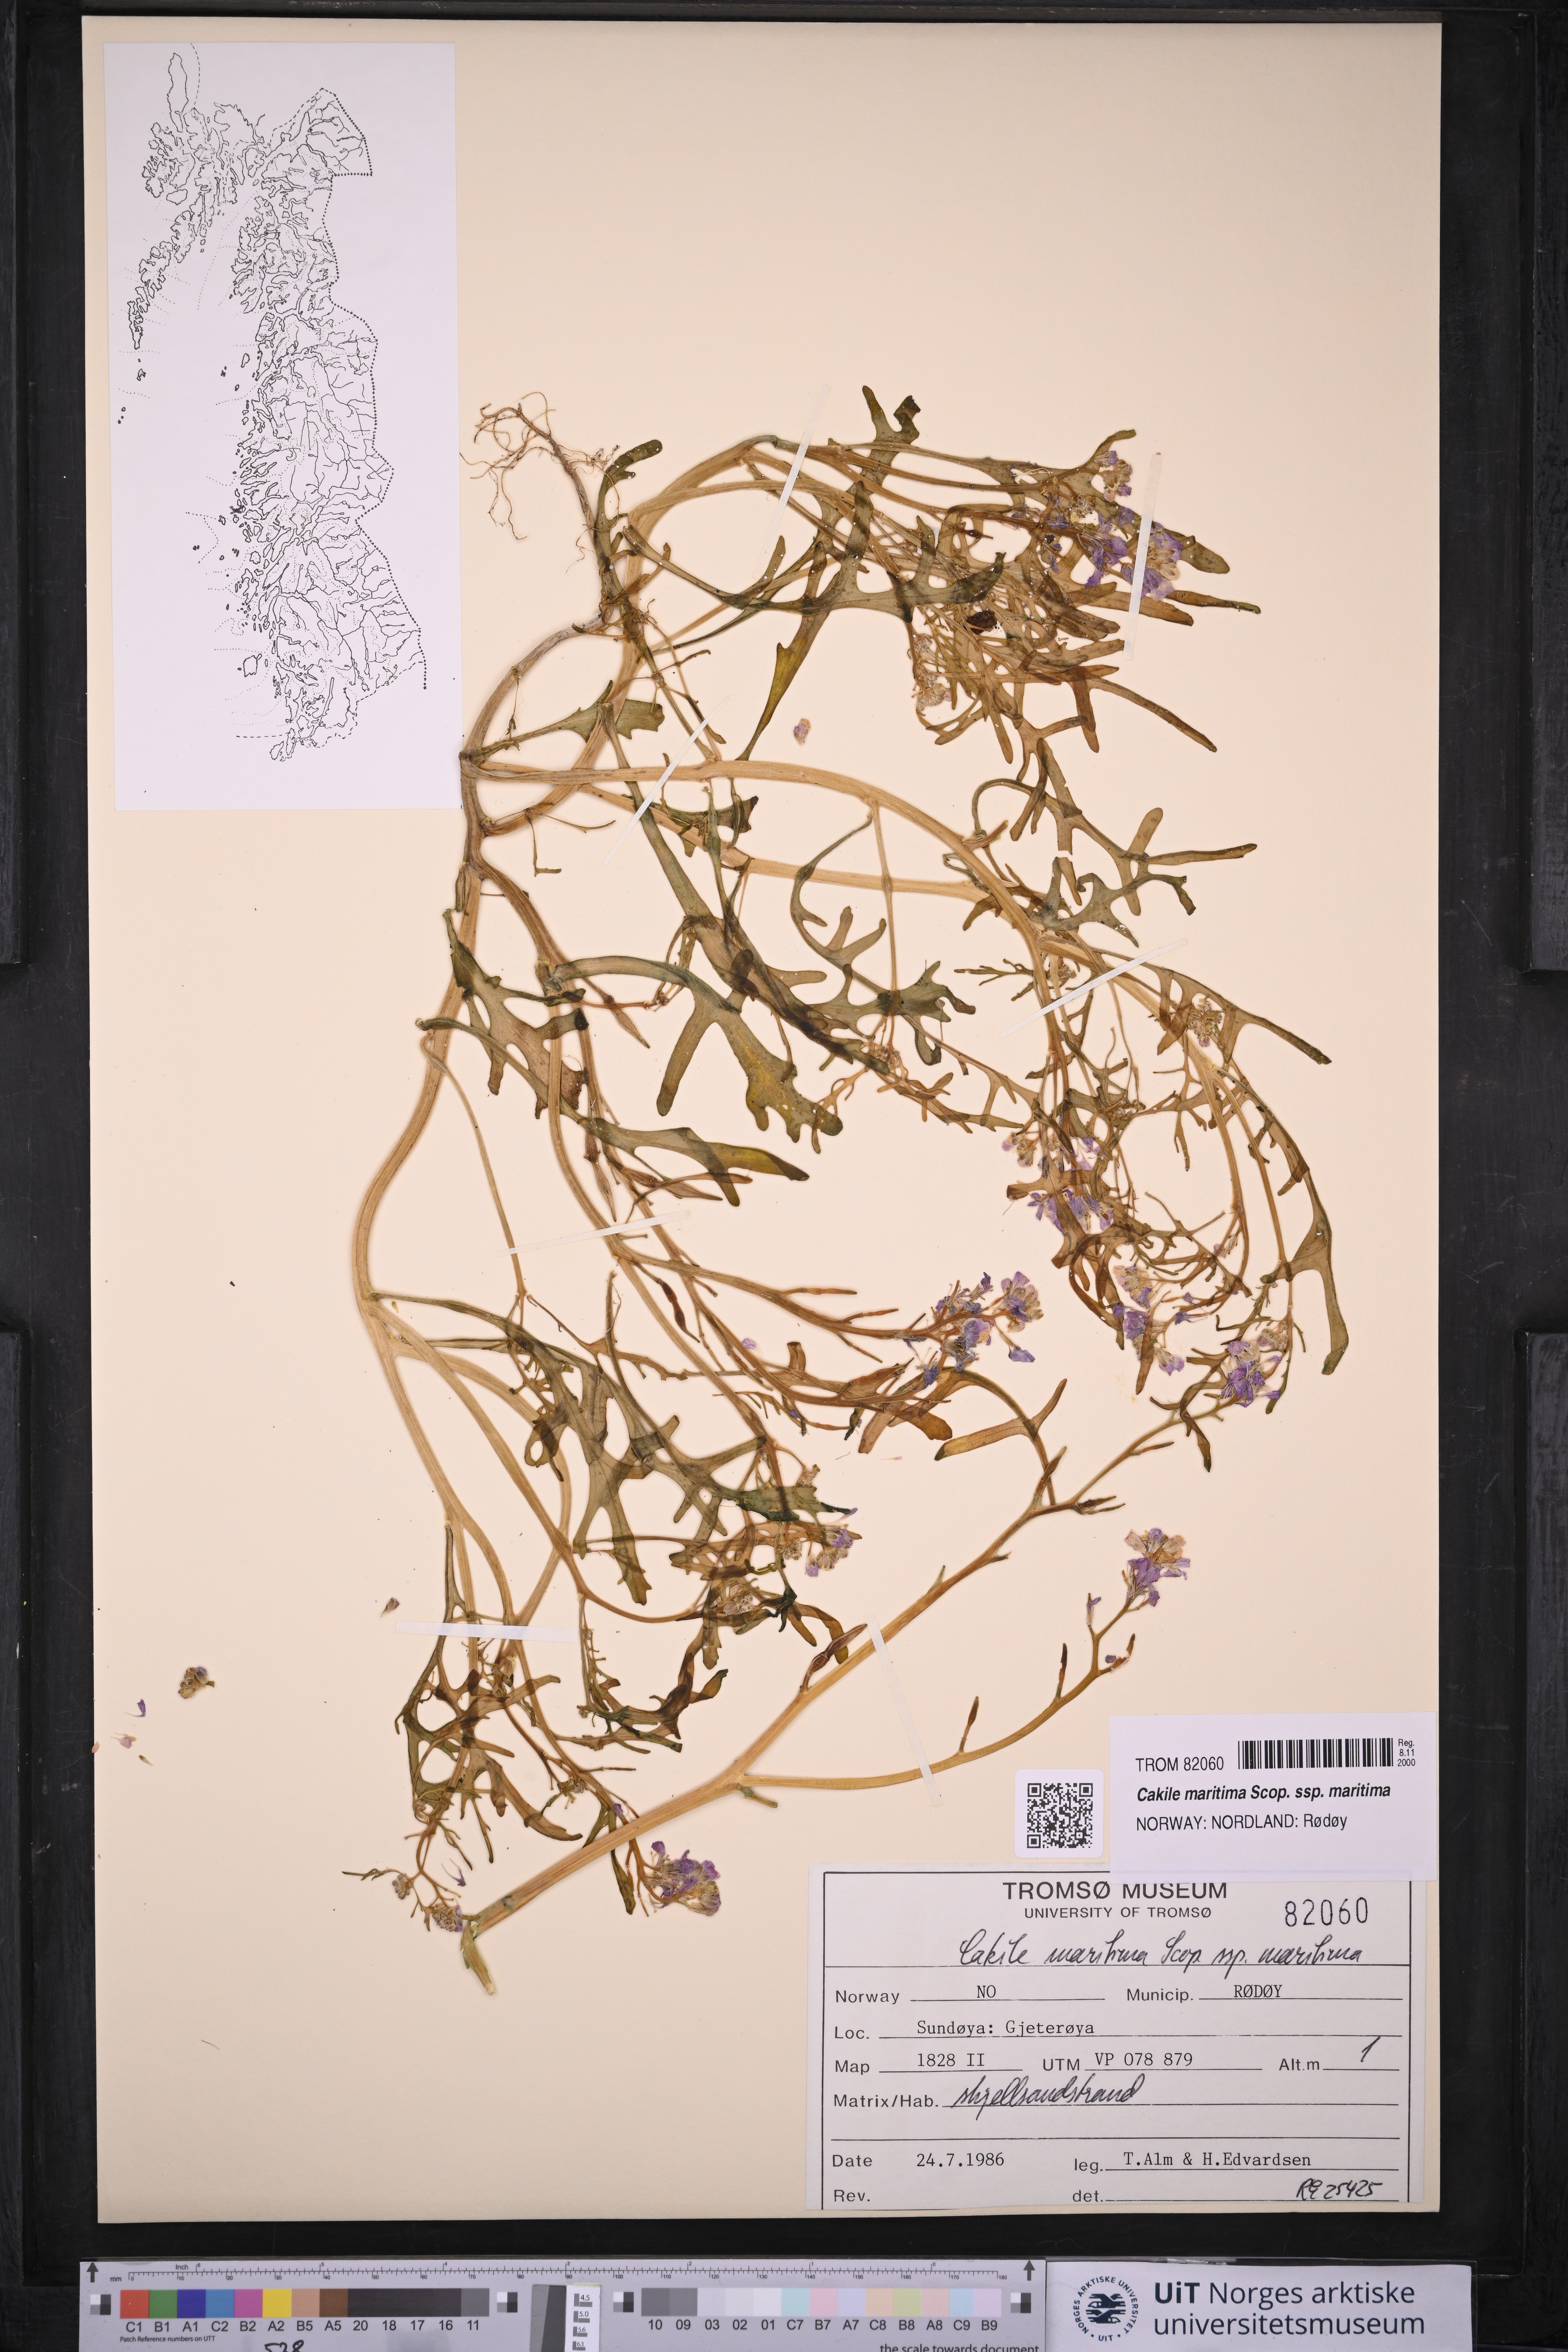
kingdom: Plantae
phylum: Tracheophyta
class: Magnoliopsida
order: Brassicales
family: Brassicaceae
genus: Cakile
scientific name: Cakile maritima
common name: Sea rocket
